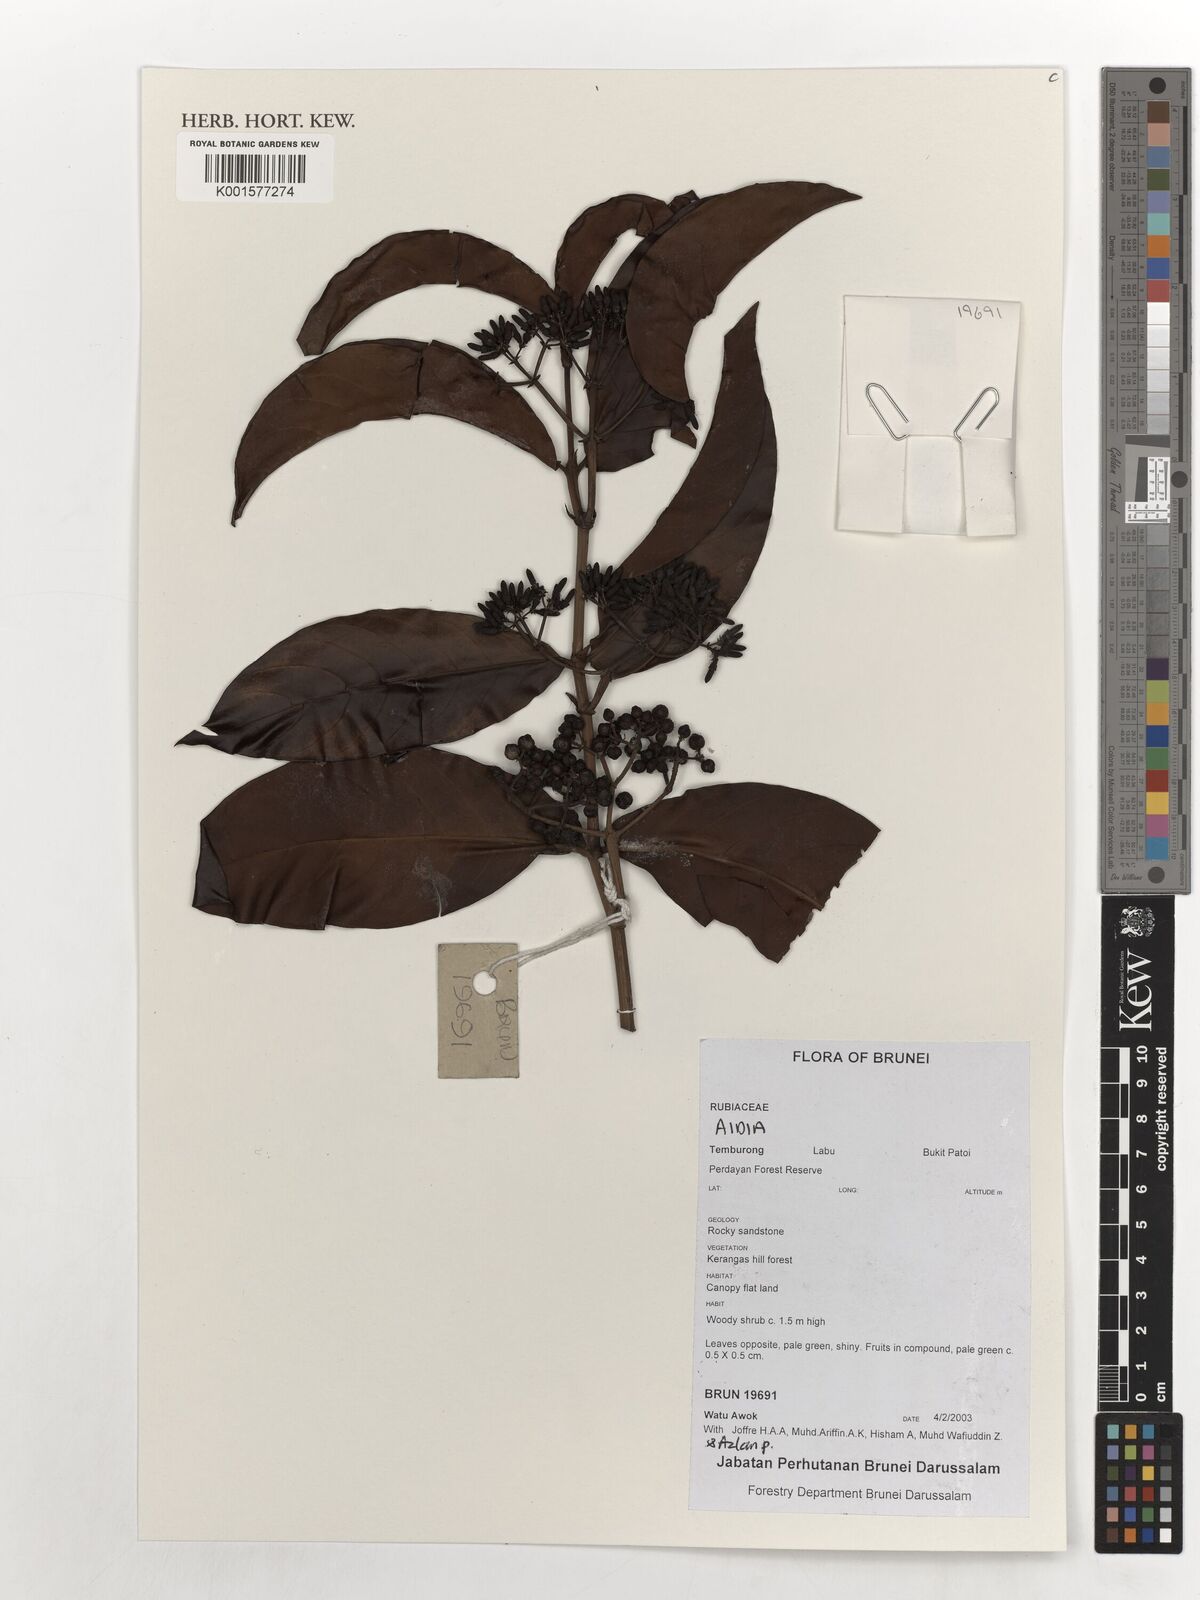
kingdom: Plantae
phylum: Tracheophyta
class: Magnoliopsida
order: Gentianales
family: Rubiaceae
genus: Aidia
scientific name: Aidia
